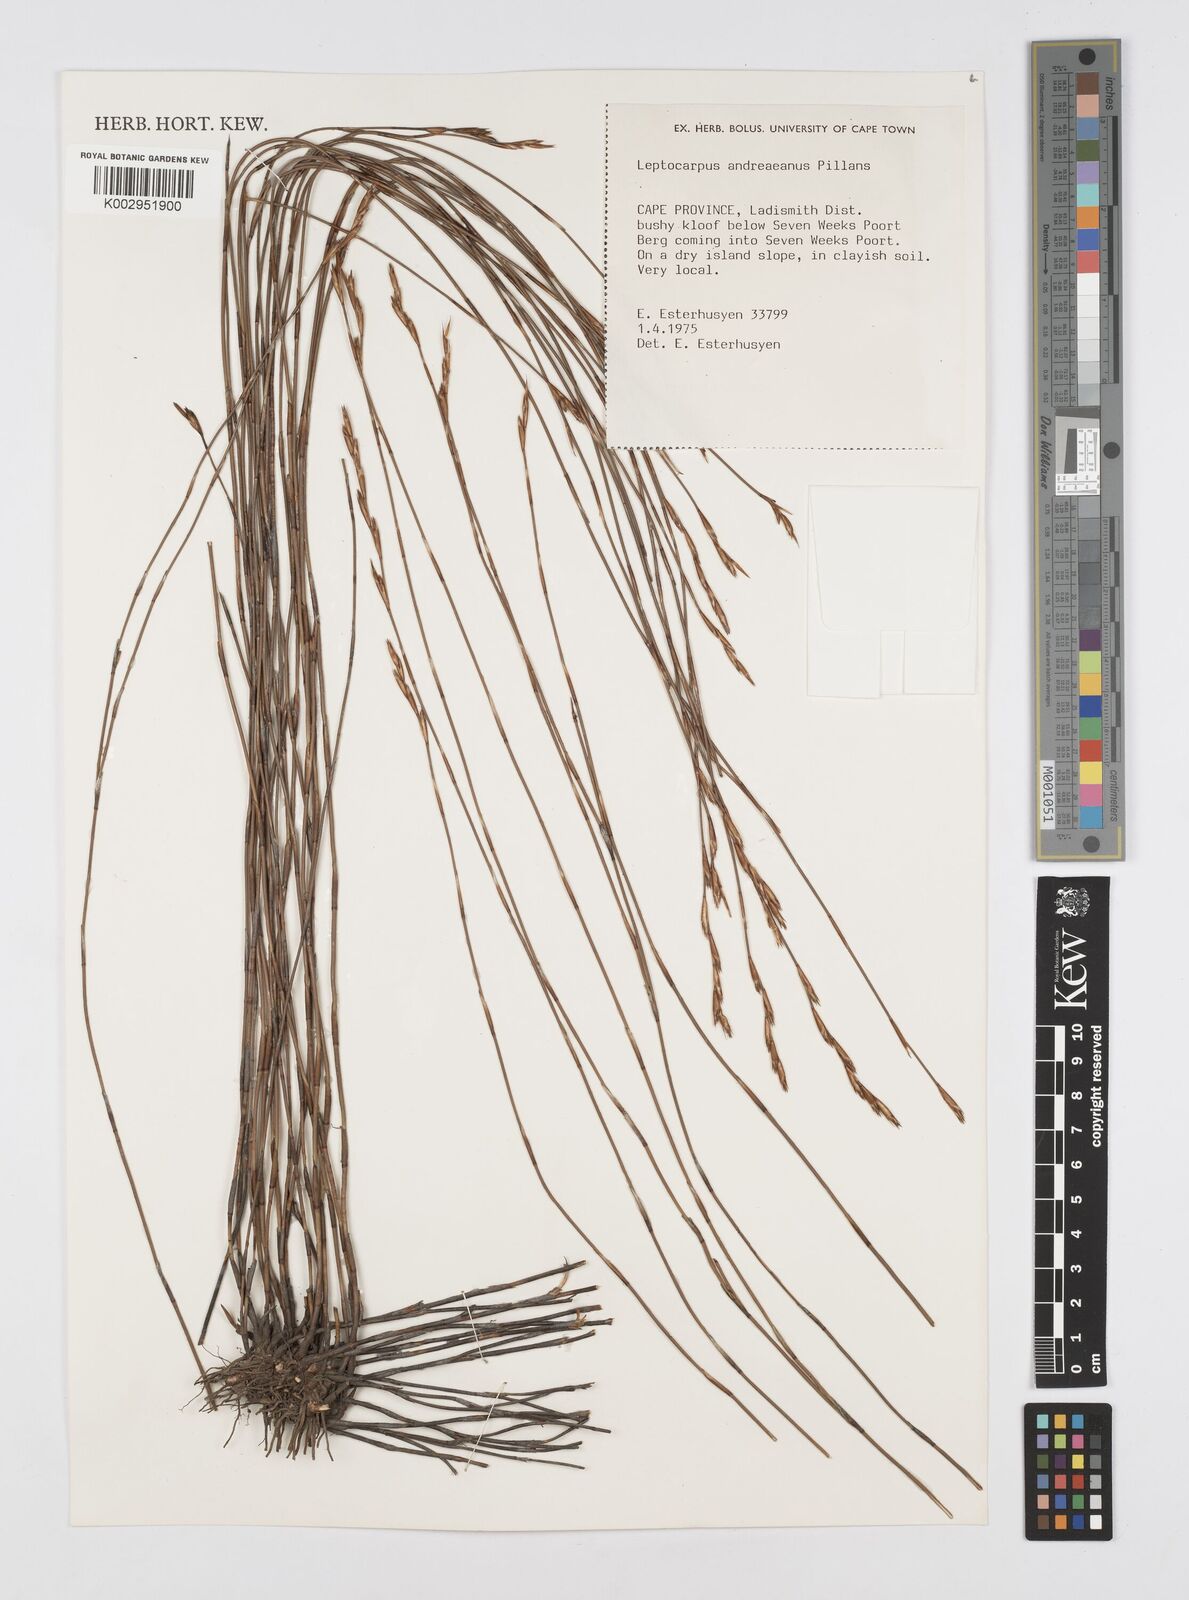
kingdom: Plantae
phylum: Tracheophyta
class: Liliopsida
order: Poales
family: Restionaceae
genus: Restio
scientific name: Restio andreaeanus
